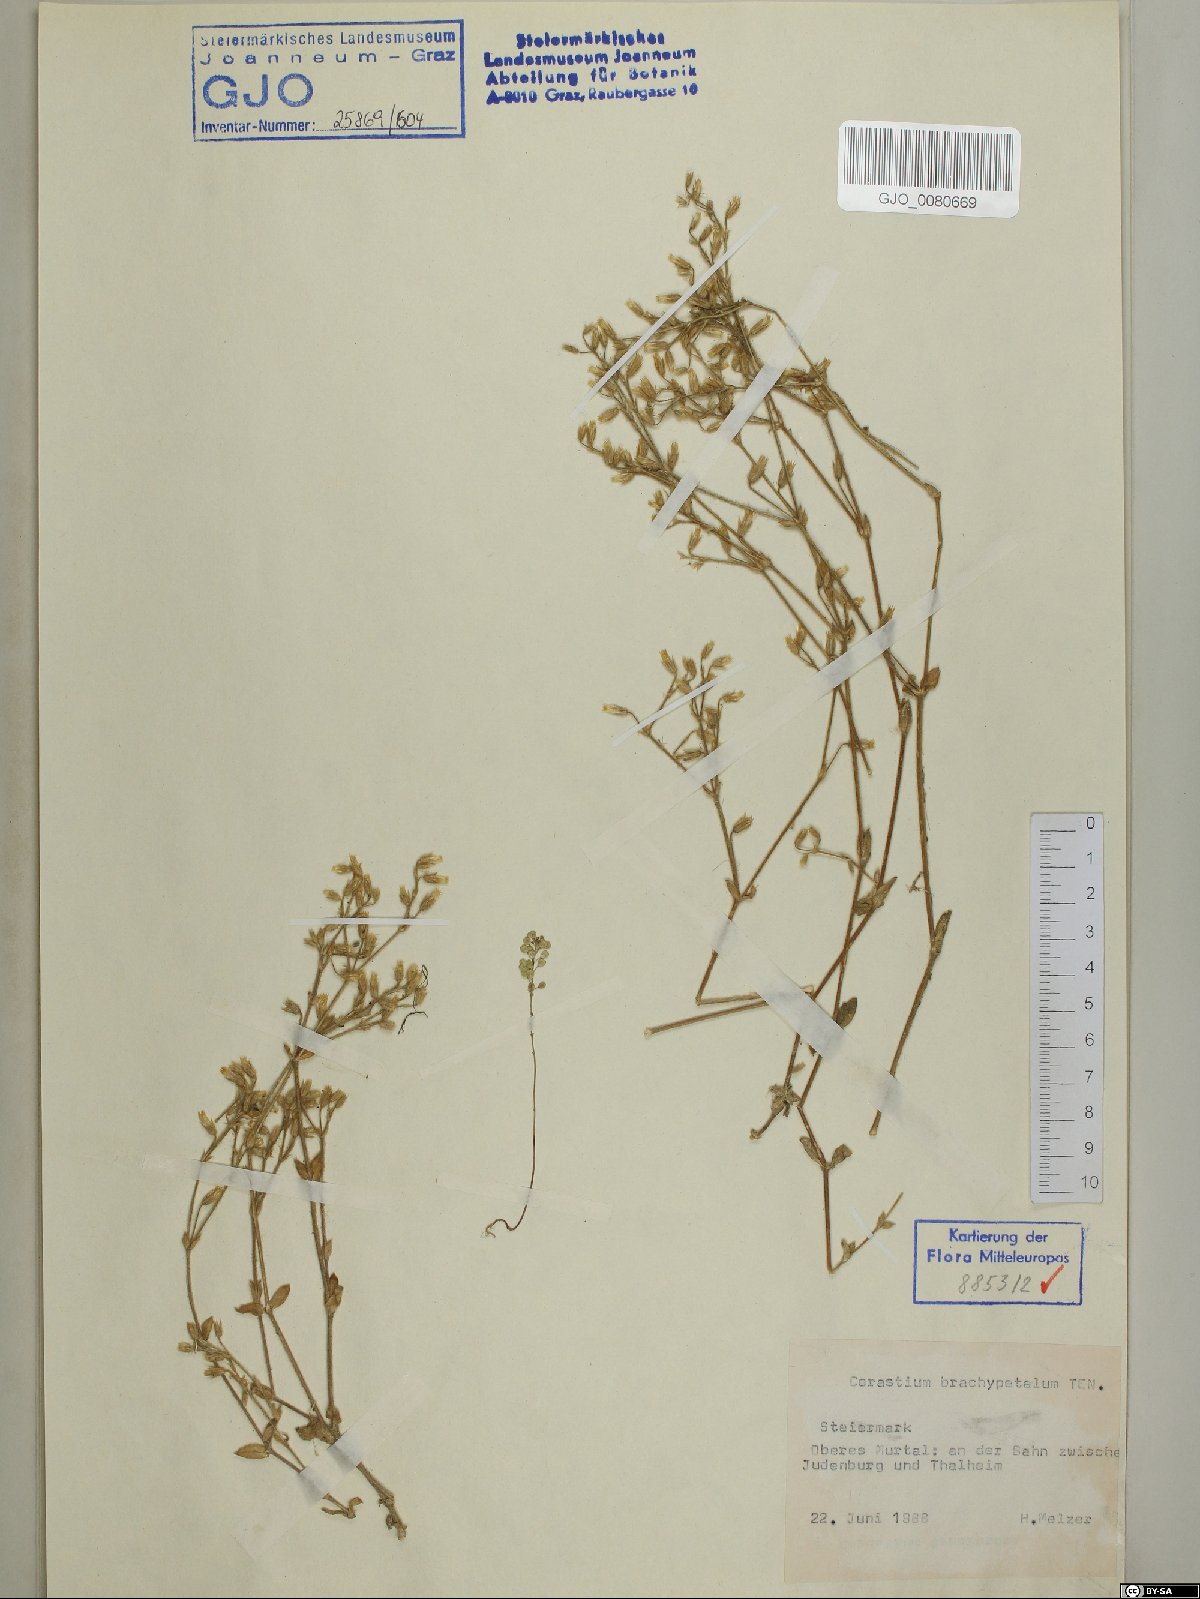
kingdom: Plantae
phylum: Tracheophyta
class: Magnoliopsida
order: Caryophyllales
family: Caryophyllaceae
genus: Cerastium
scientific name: Cerastium brachypetalum
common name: Grey mouse-ear
